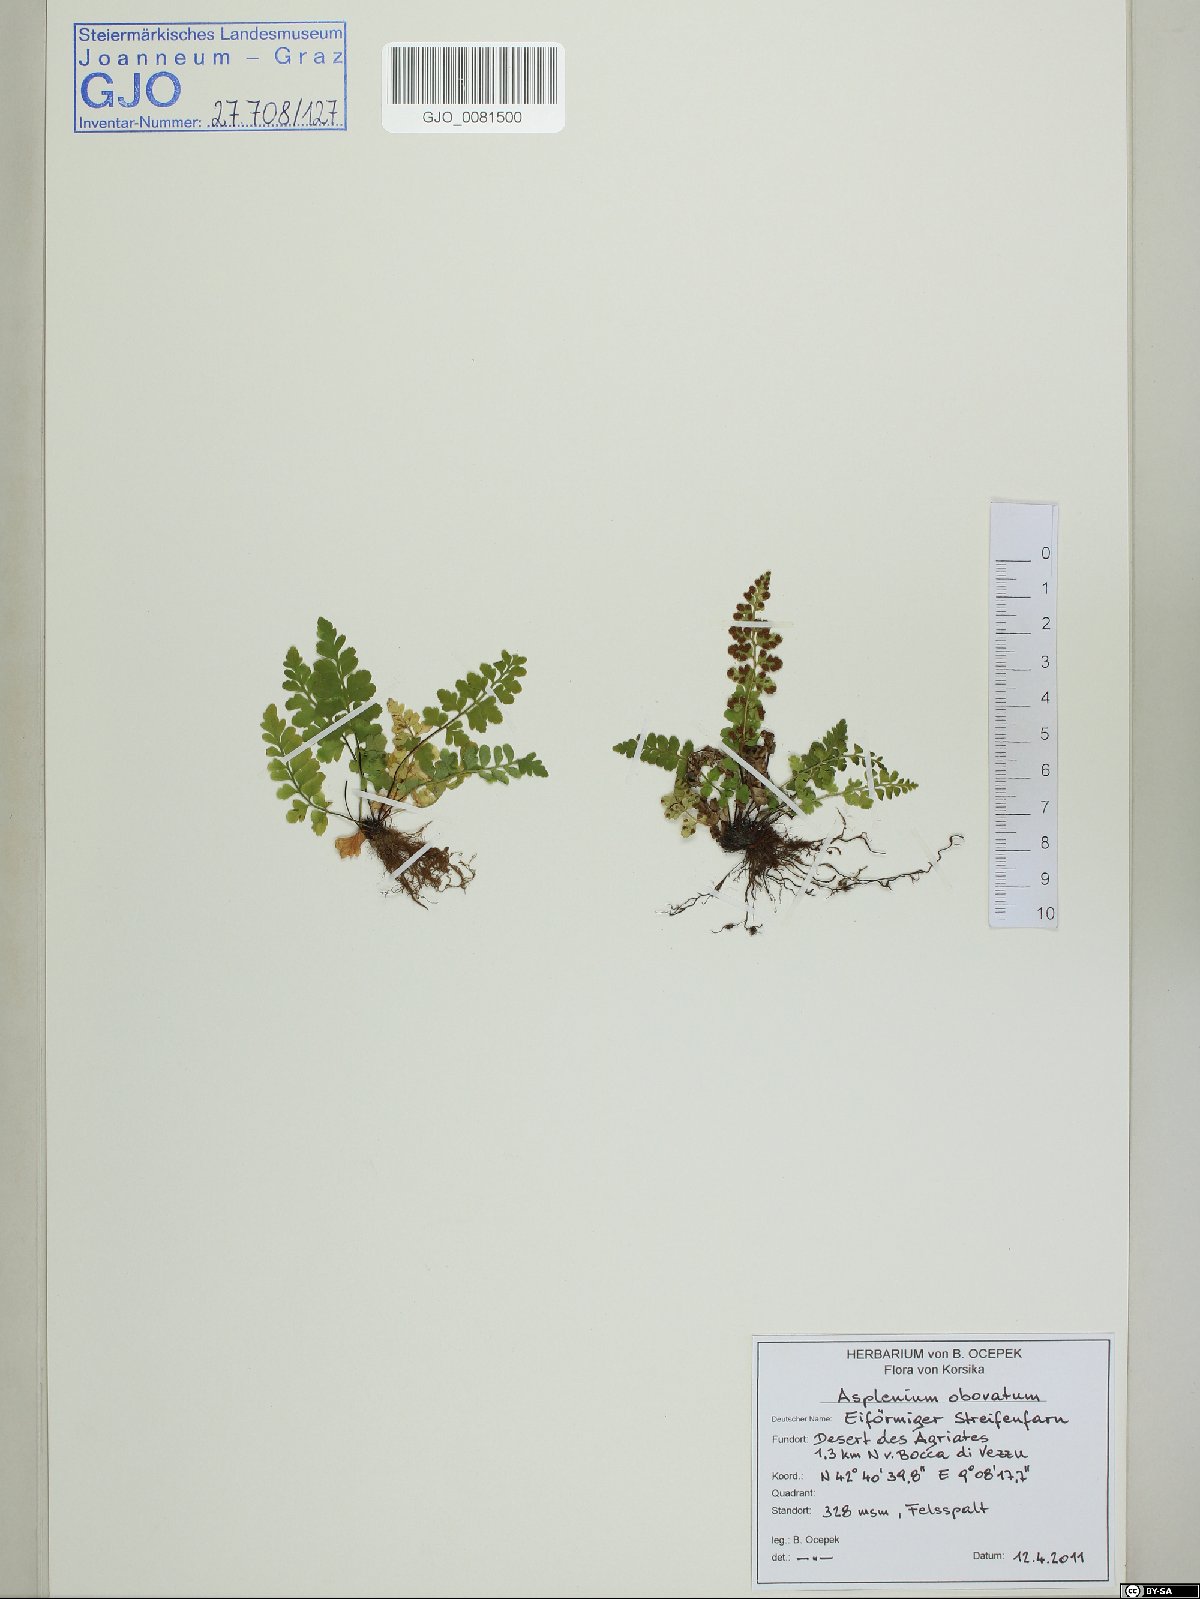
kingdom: Plantae
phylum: Tracheophyta
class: Polypodiopsida
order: Polypodiales
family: Aspleniaceae
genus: Asplenium
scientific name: Asplenium obovatum
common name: Lanceolate spleenwort
